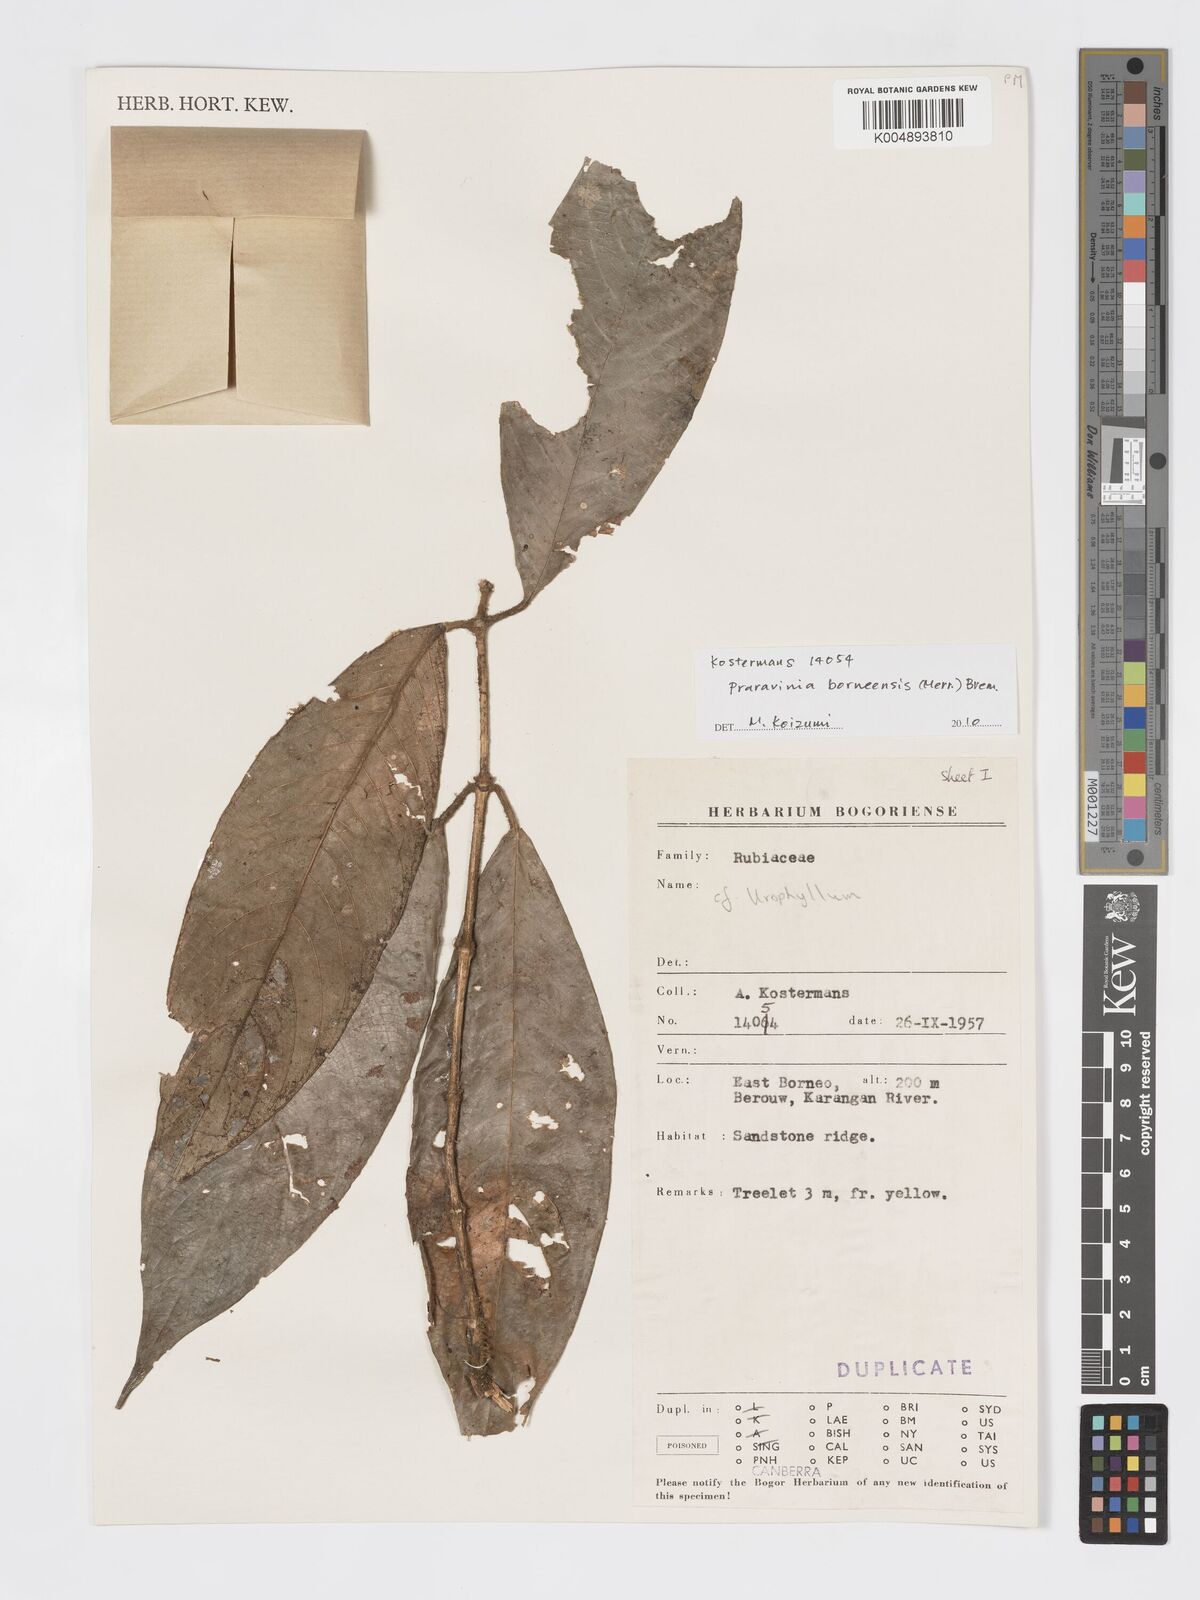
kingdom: Plantae
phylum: Tracheophyta
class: Magnoliopsida
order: Gentianales
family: Rubiaceae
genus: Praravinia
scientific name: Praravinia borneensis
